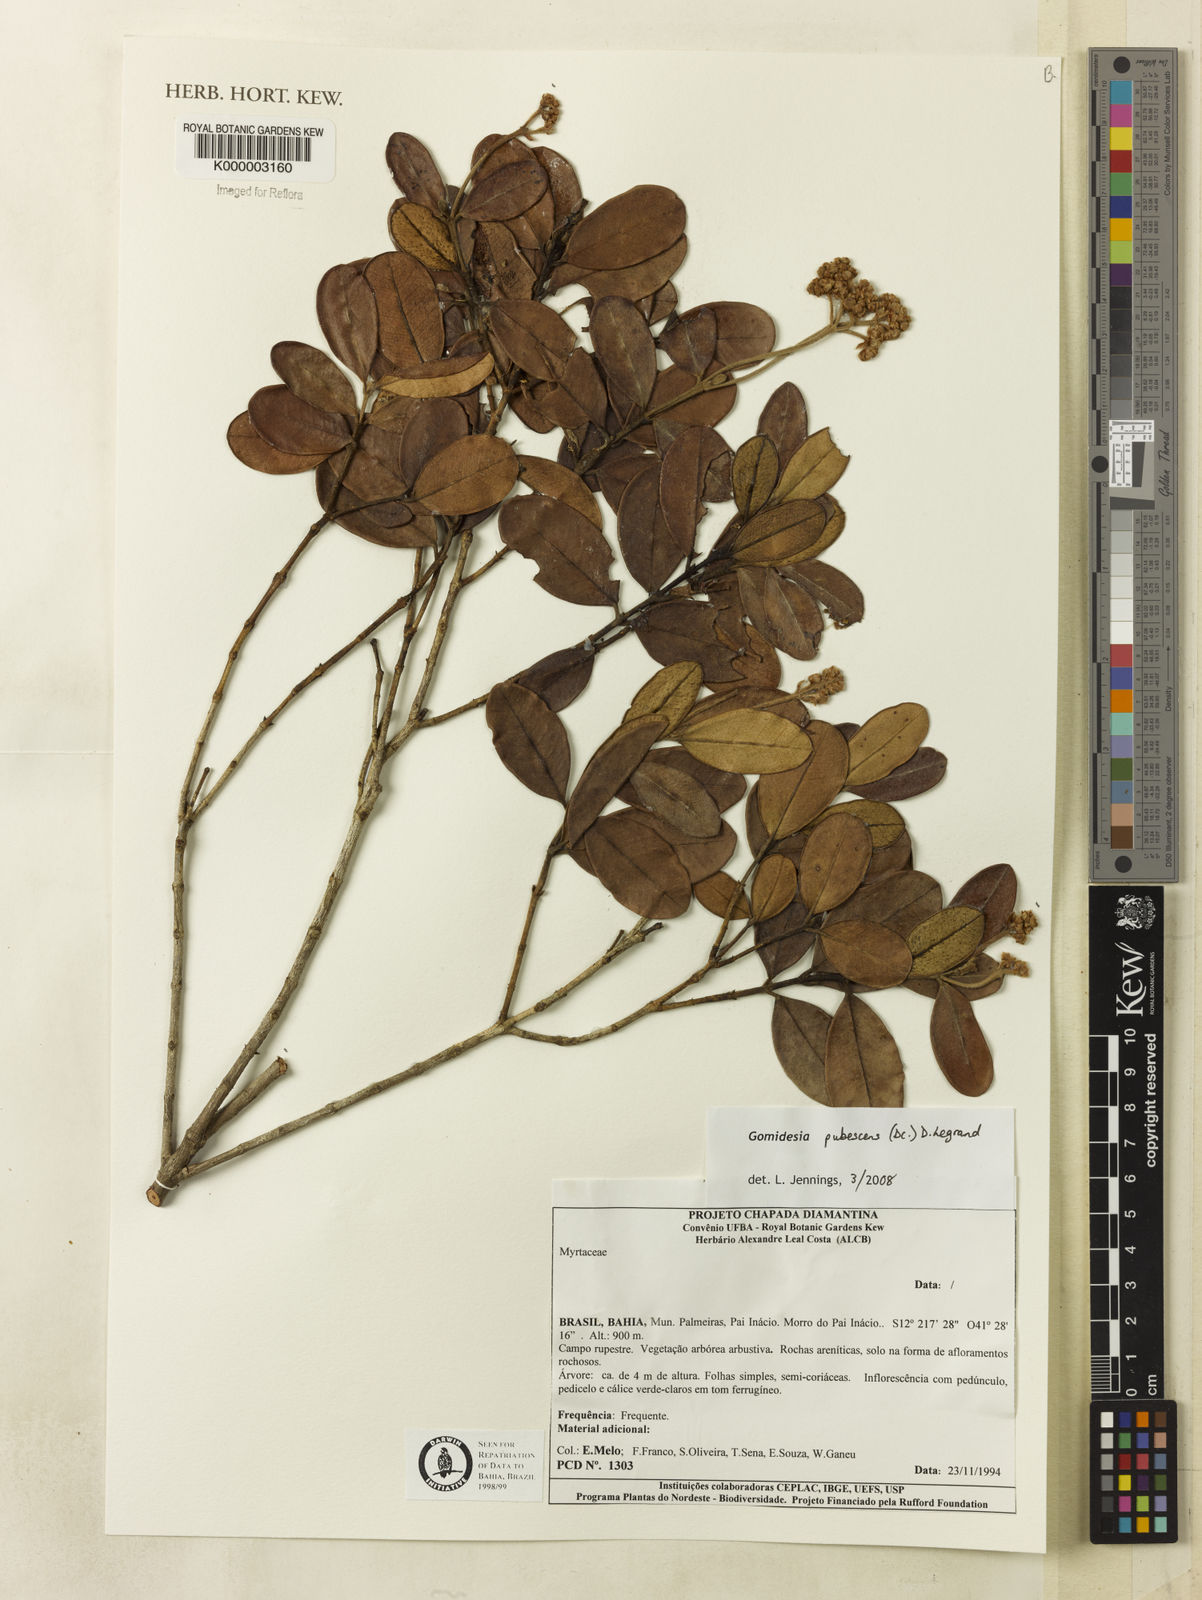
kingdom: Plantae
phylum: Tracheophyta
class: Magnoliopsida
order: Myrtales
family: Myrtaceae
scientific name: Myrtaceae
